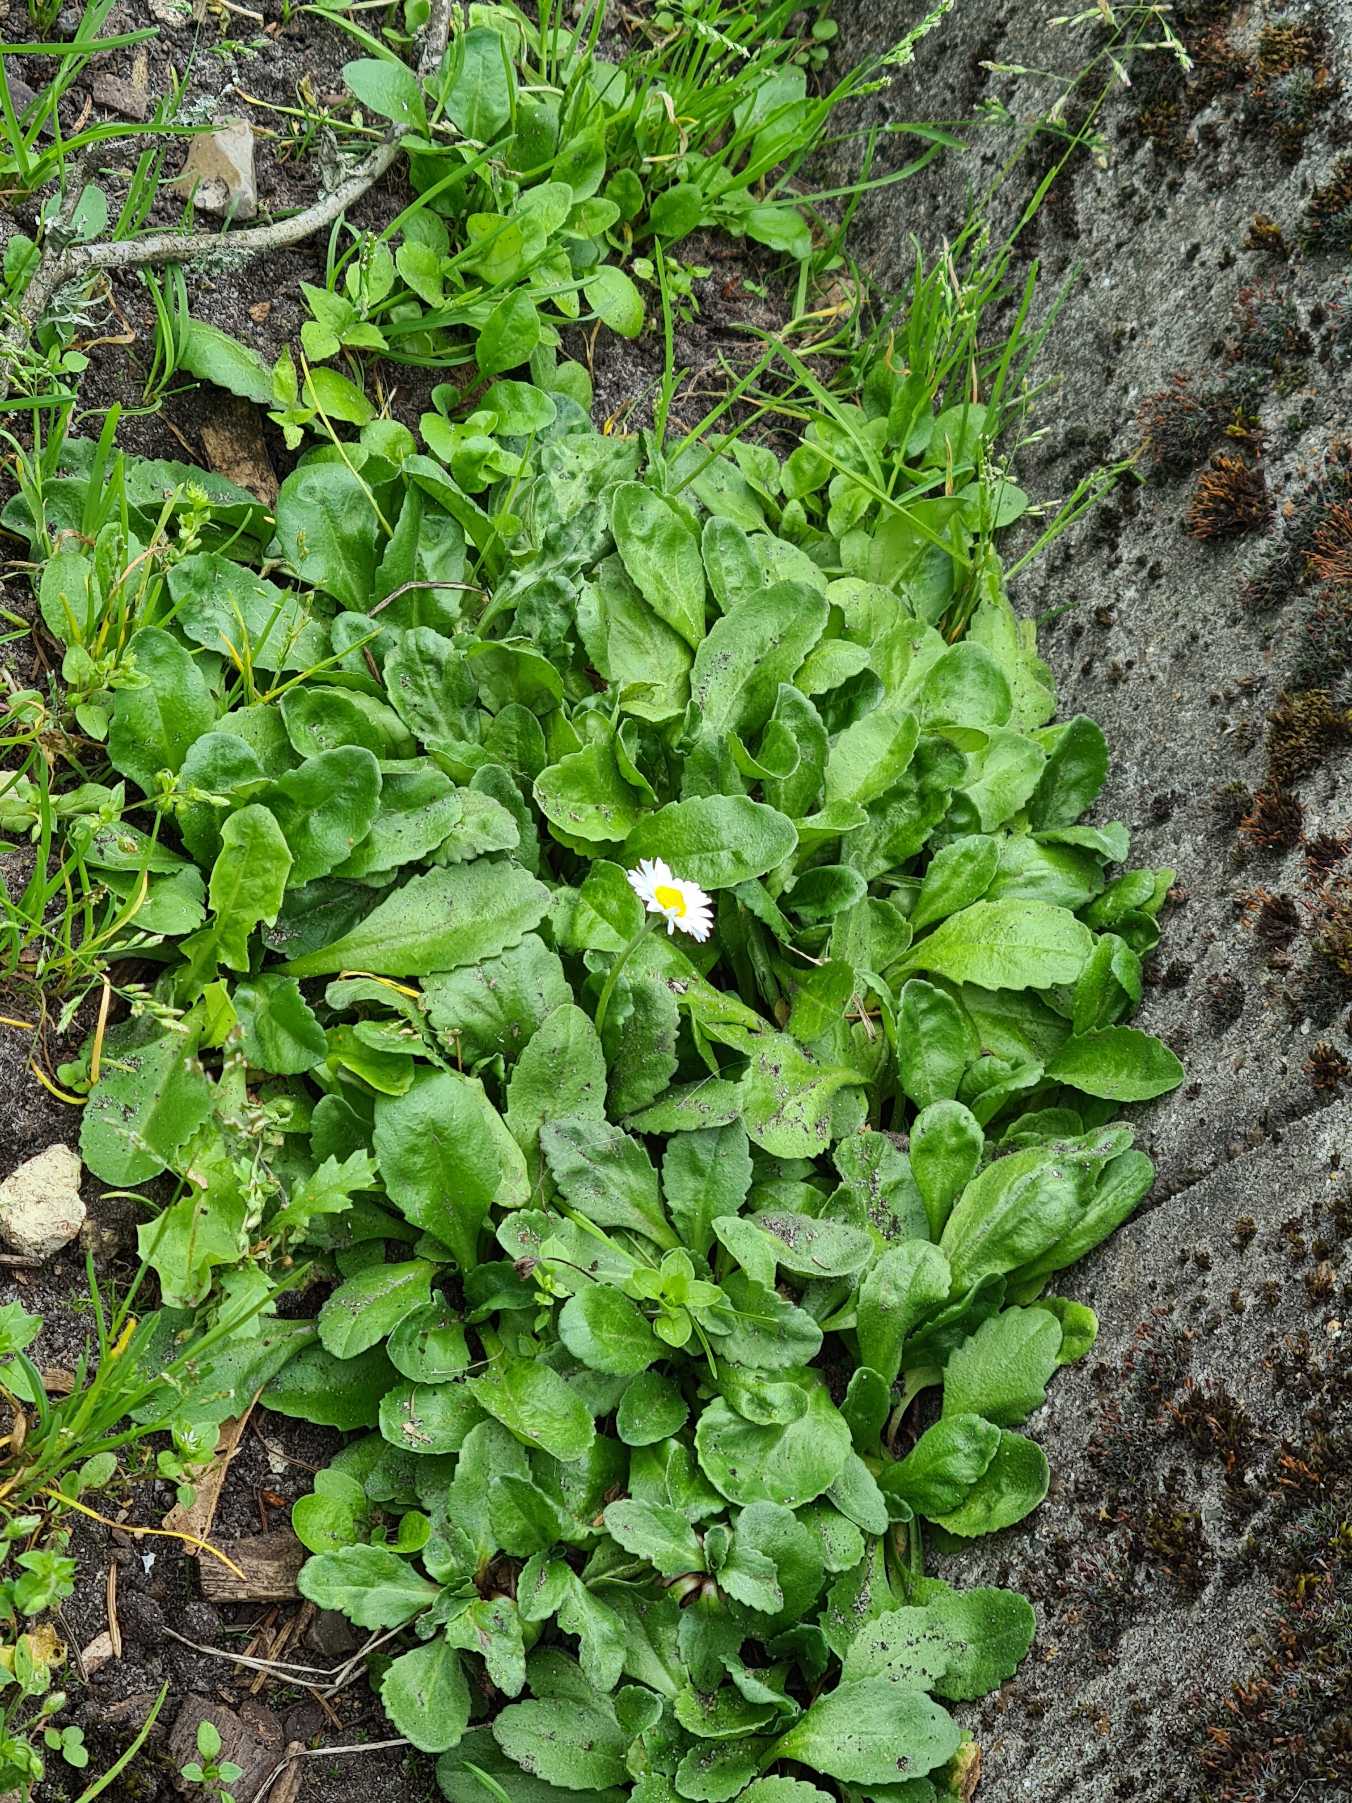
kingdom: Plantae
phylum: Tracheophyta
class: Magnoliopsida
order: Asterales
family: Asteraceae
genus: Bellis
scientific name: Bellis perennis
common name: Tusindfryd
